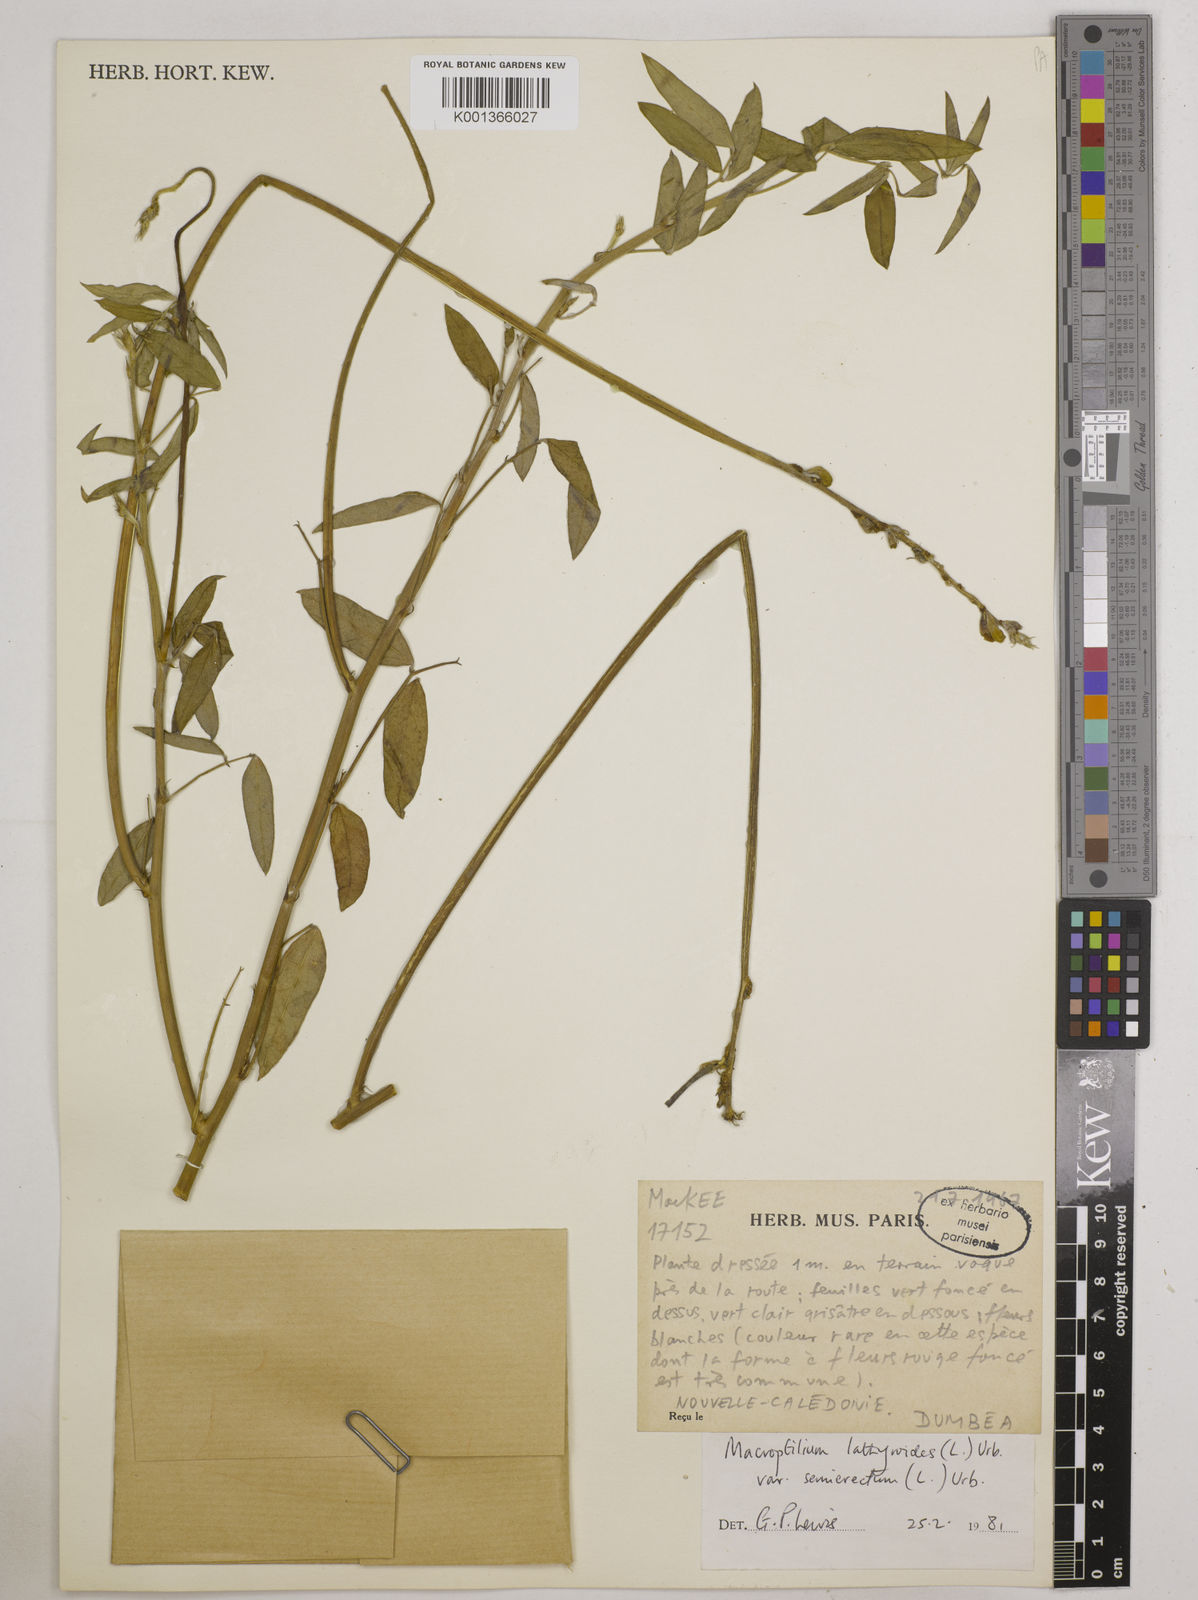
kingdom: Plantae
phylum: Tracheophyta
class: Magnoliopsida
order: Fabales
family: Fabaceae
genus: Macroptilium
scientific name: Macroptilium lathyroides
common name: Wild bushbean
